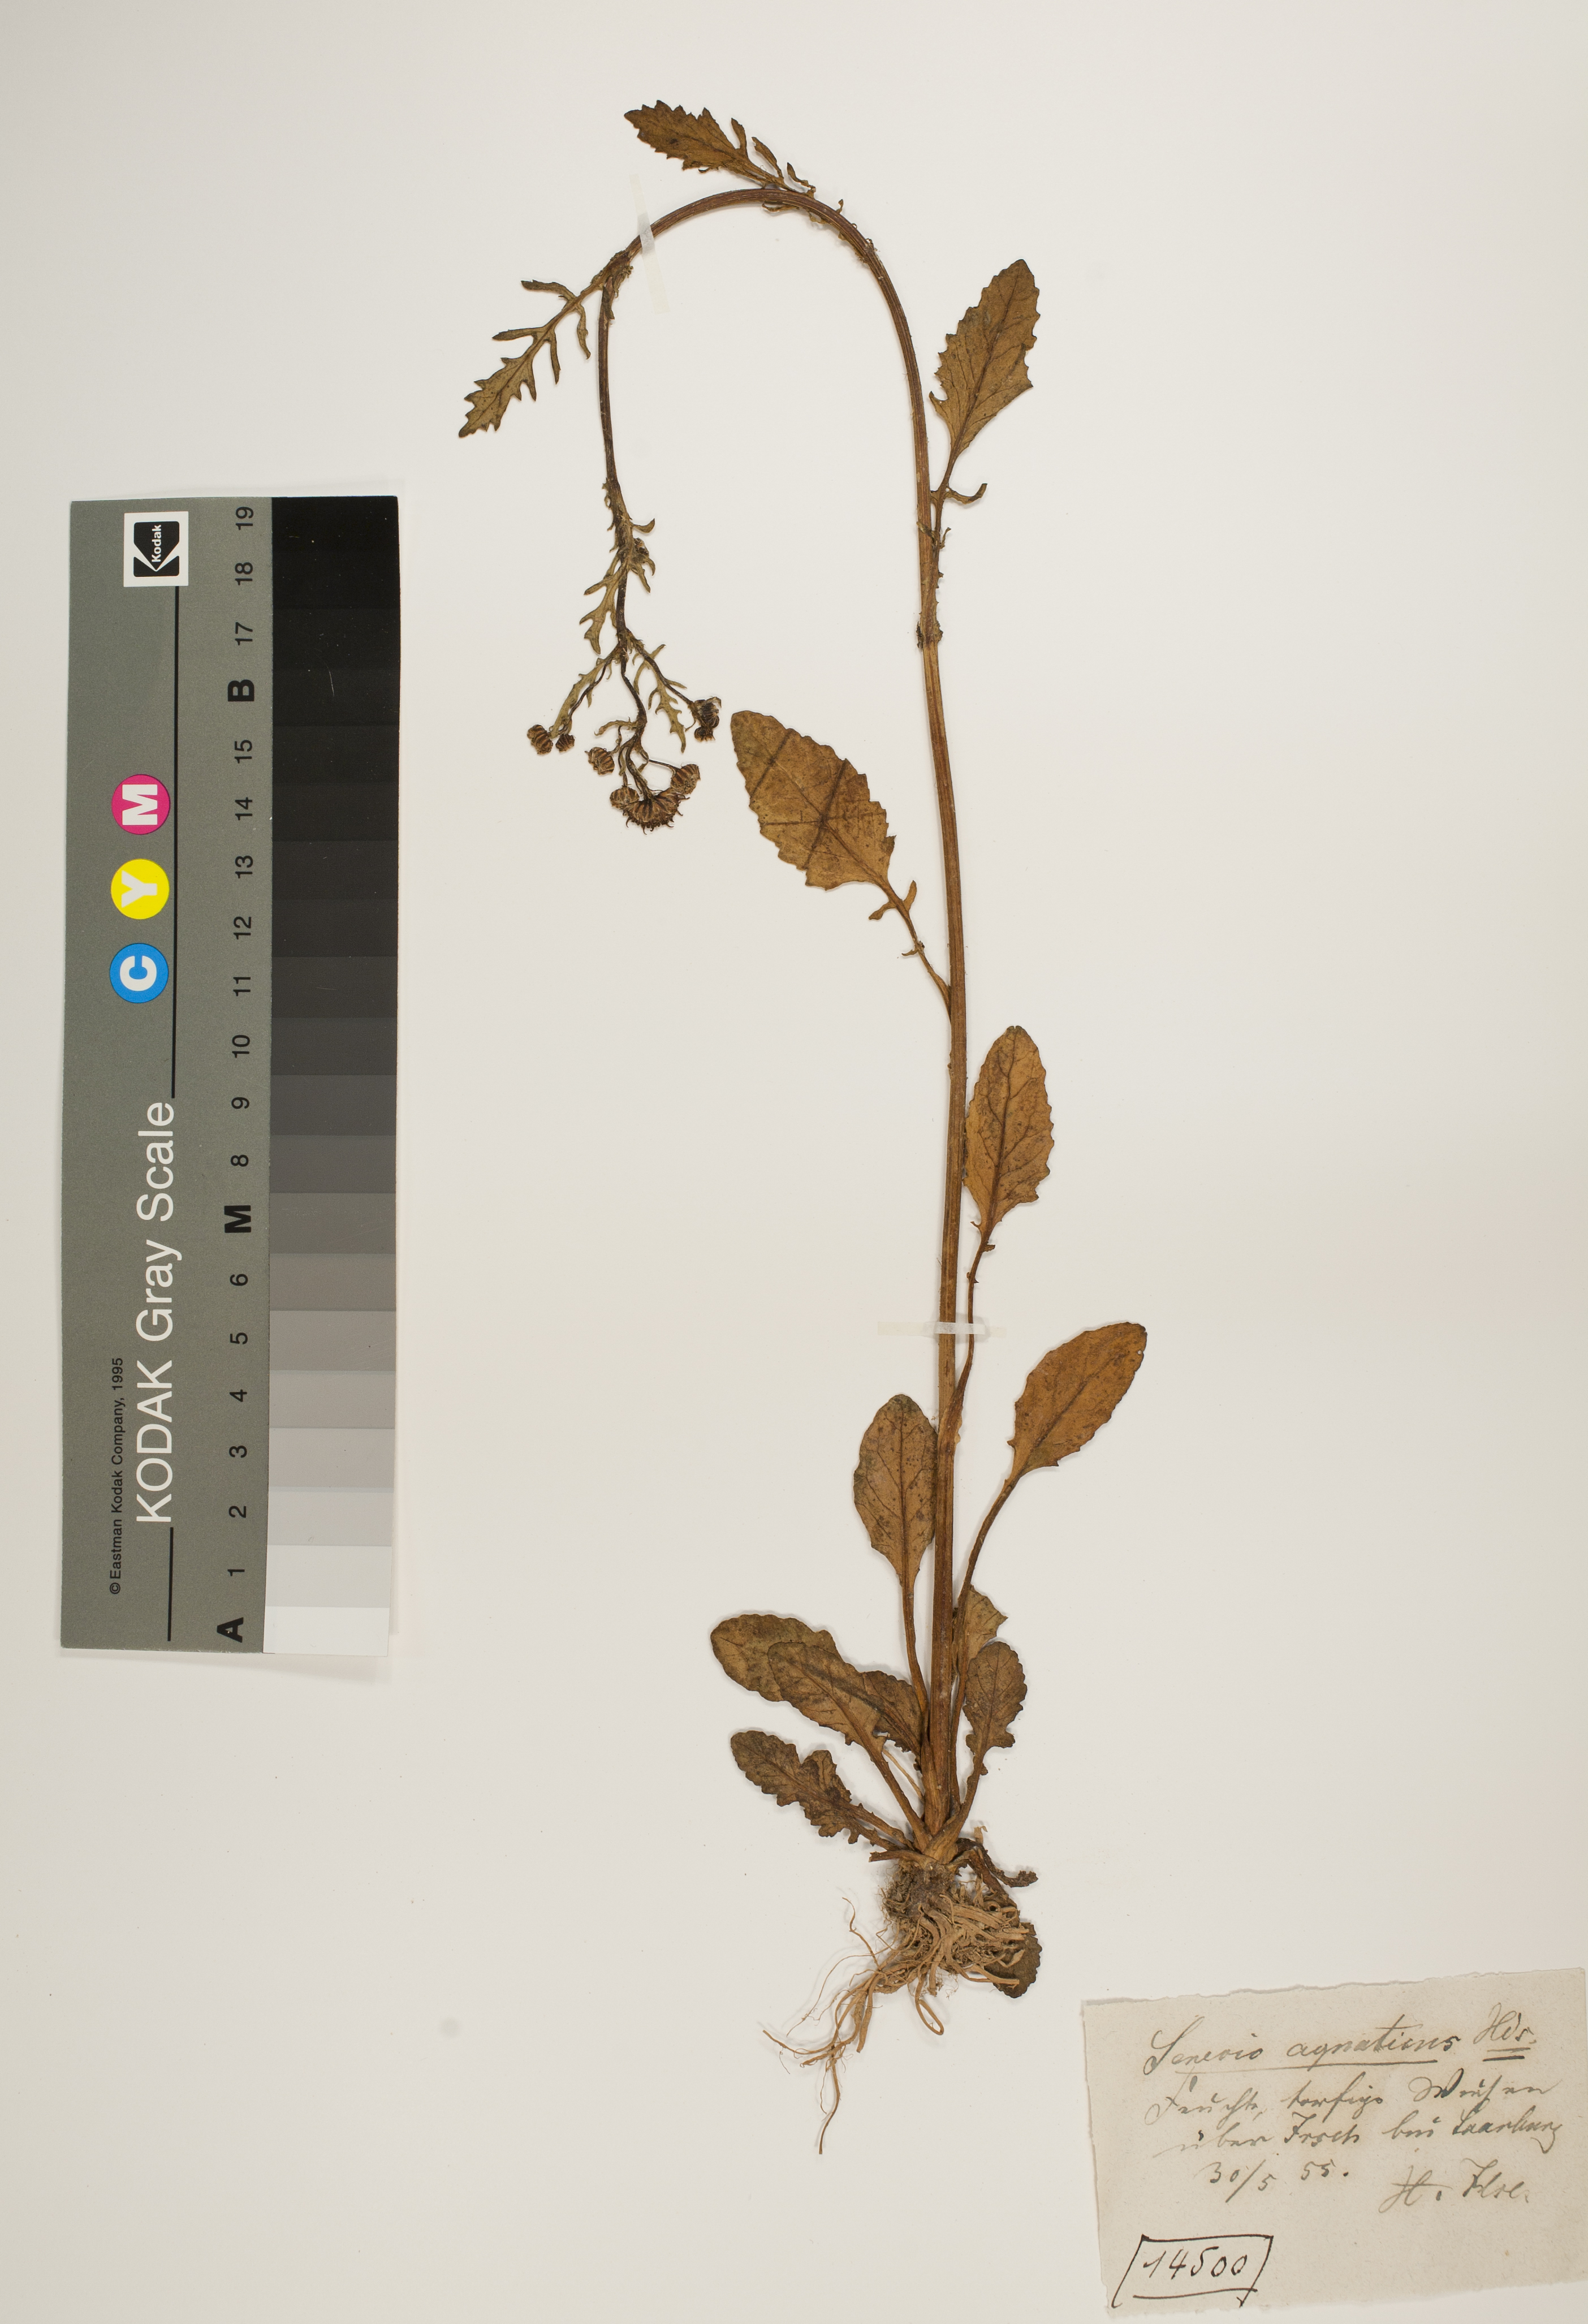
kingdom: Plantae
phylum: Tracheophyta
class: Magnoliopsida
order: Asterales
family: Asteraceae
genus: Jacobaea
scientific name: Jacobaea aquatica
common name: Water ragwort
